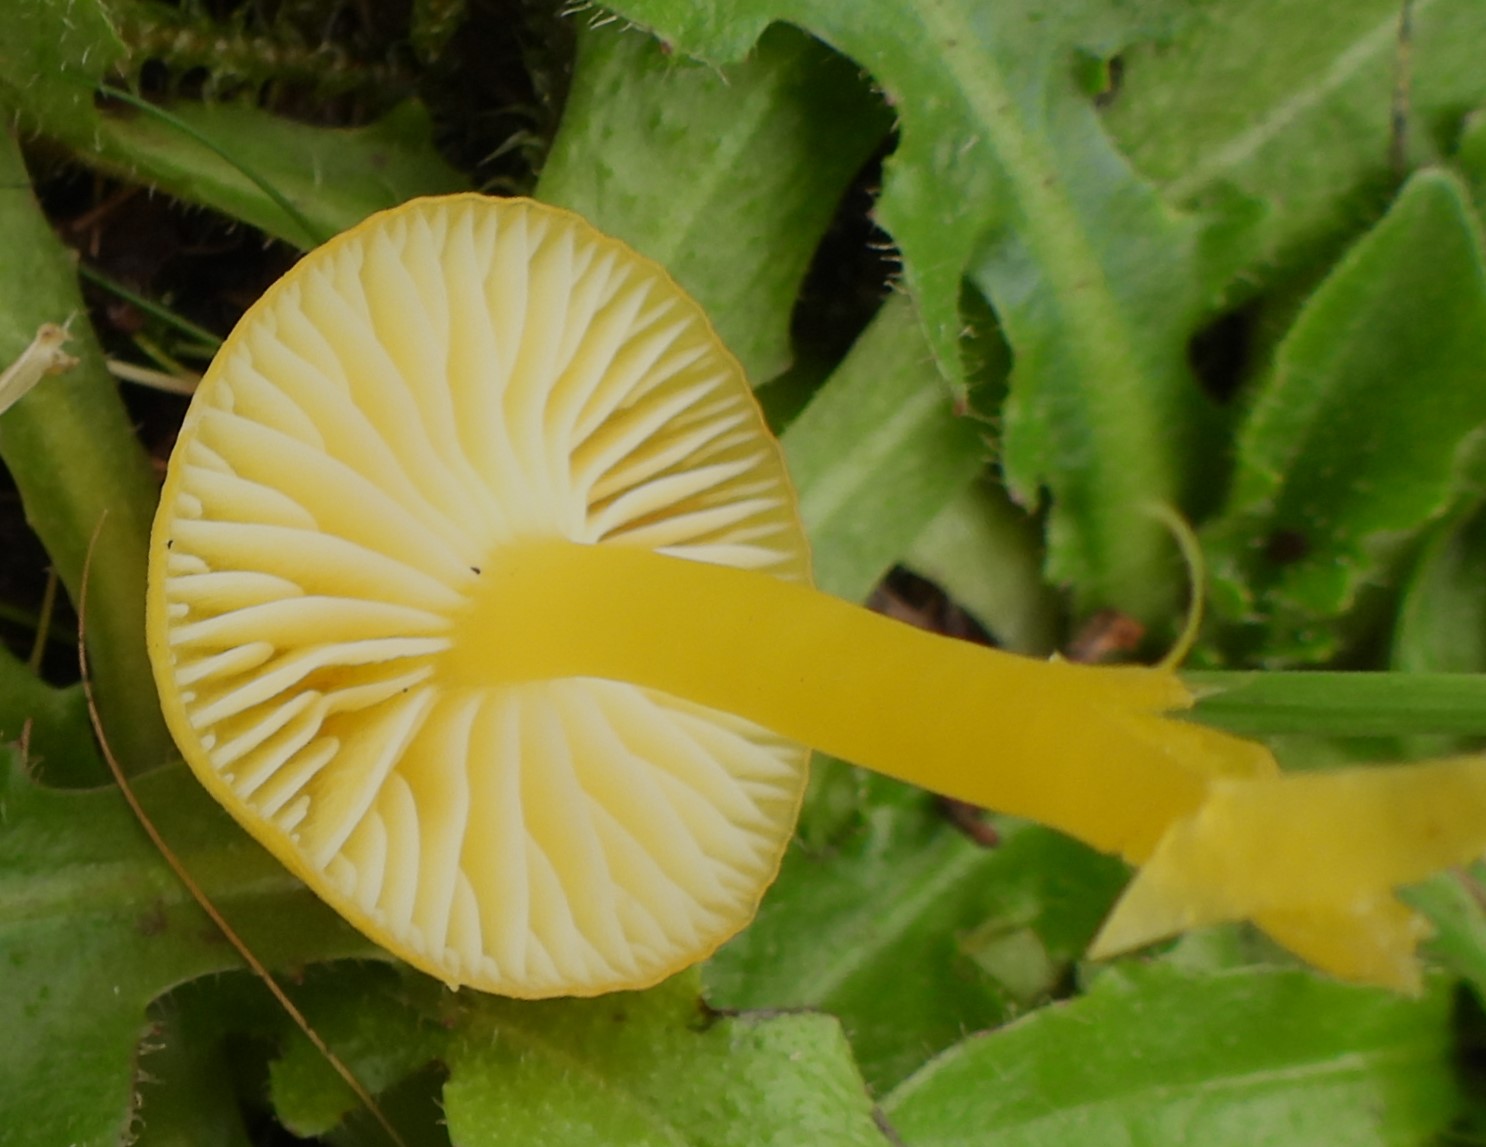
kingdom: Fungi
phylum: Basidiomycota
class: Agaricomycetes
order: Agaricales
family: Hygrophoraceae
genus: Hygrocybe
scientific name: Hygrocybe ceracea
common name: voksgul vokshat
